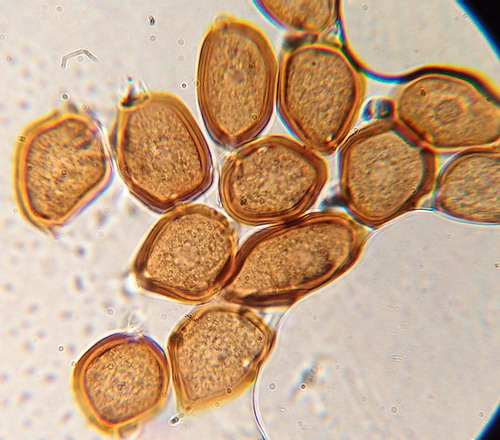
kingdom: Fungi
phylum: Basidiomycota
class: Pucciniomycetes
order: Pucciniales
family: Pucciniaceae
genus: Uromyces
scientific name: Uromyces ficariae
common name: vorterod-encellerust
